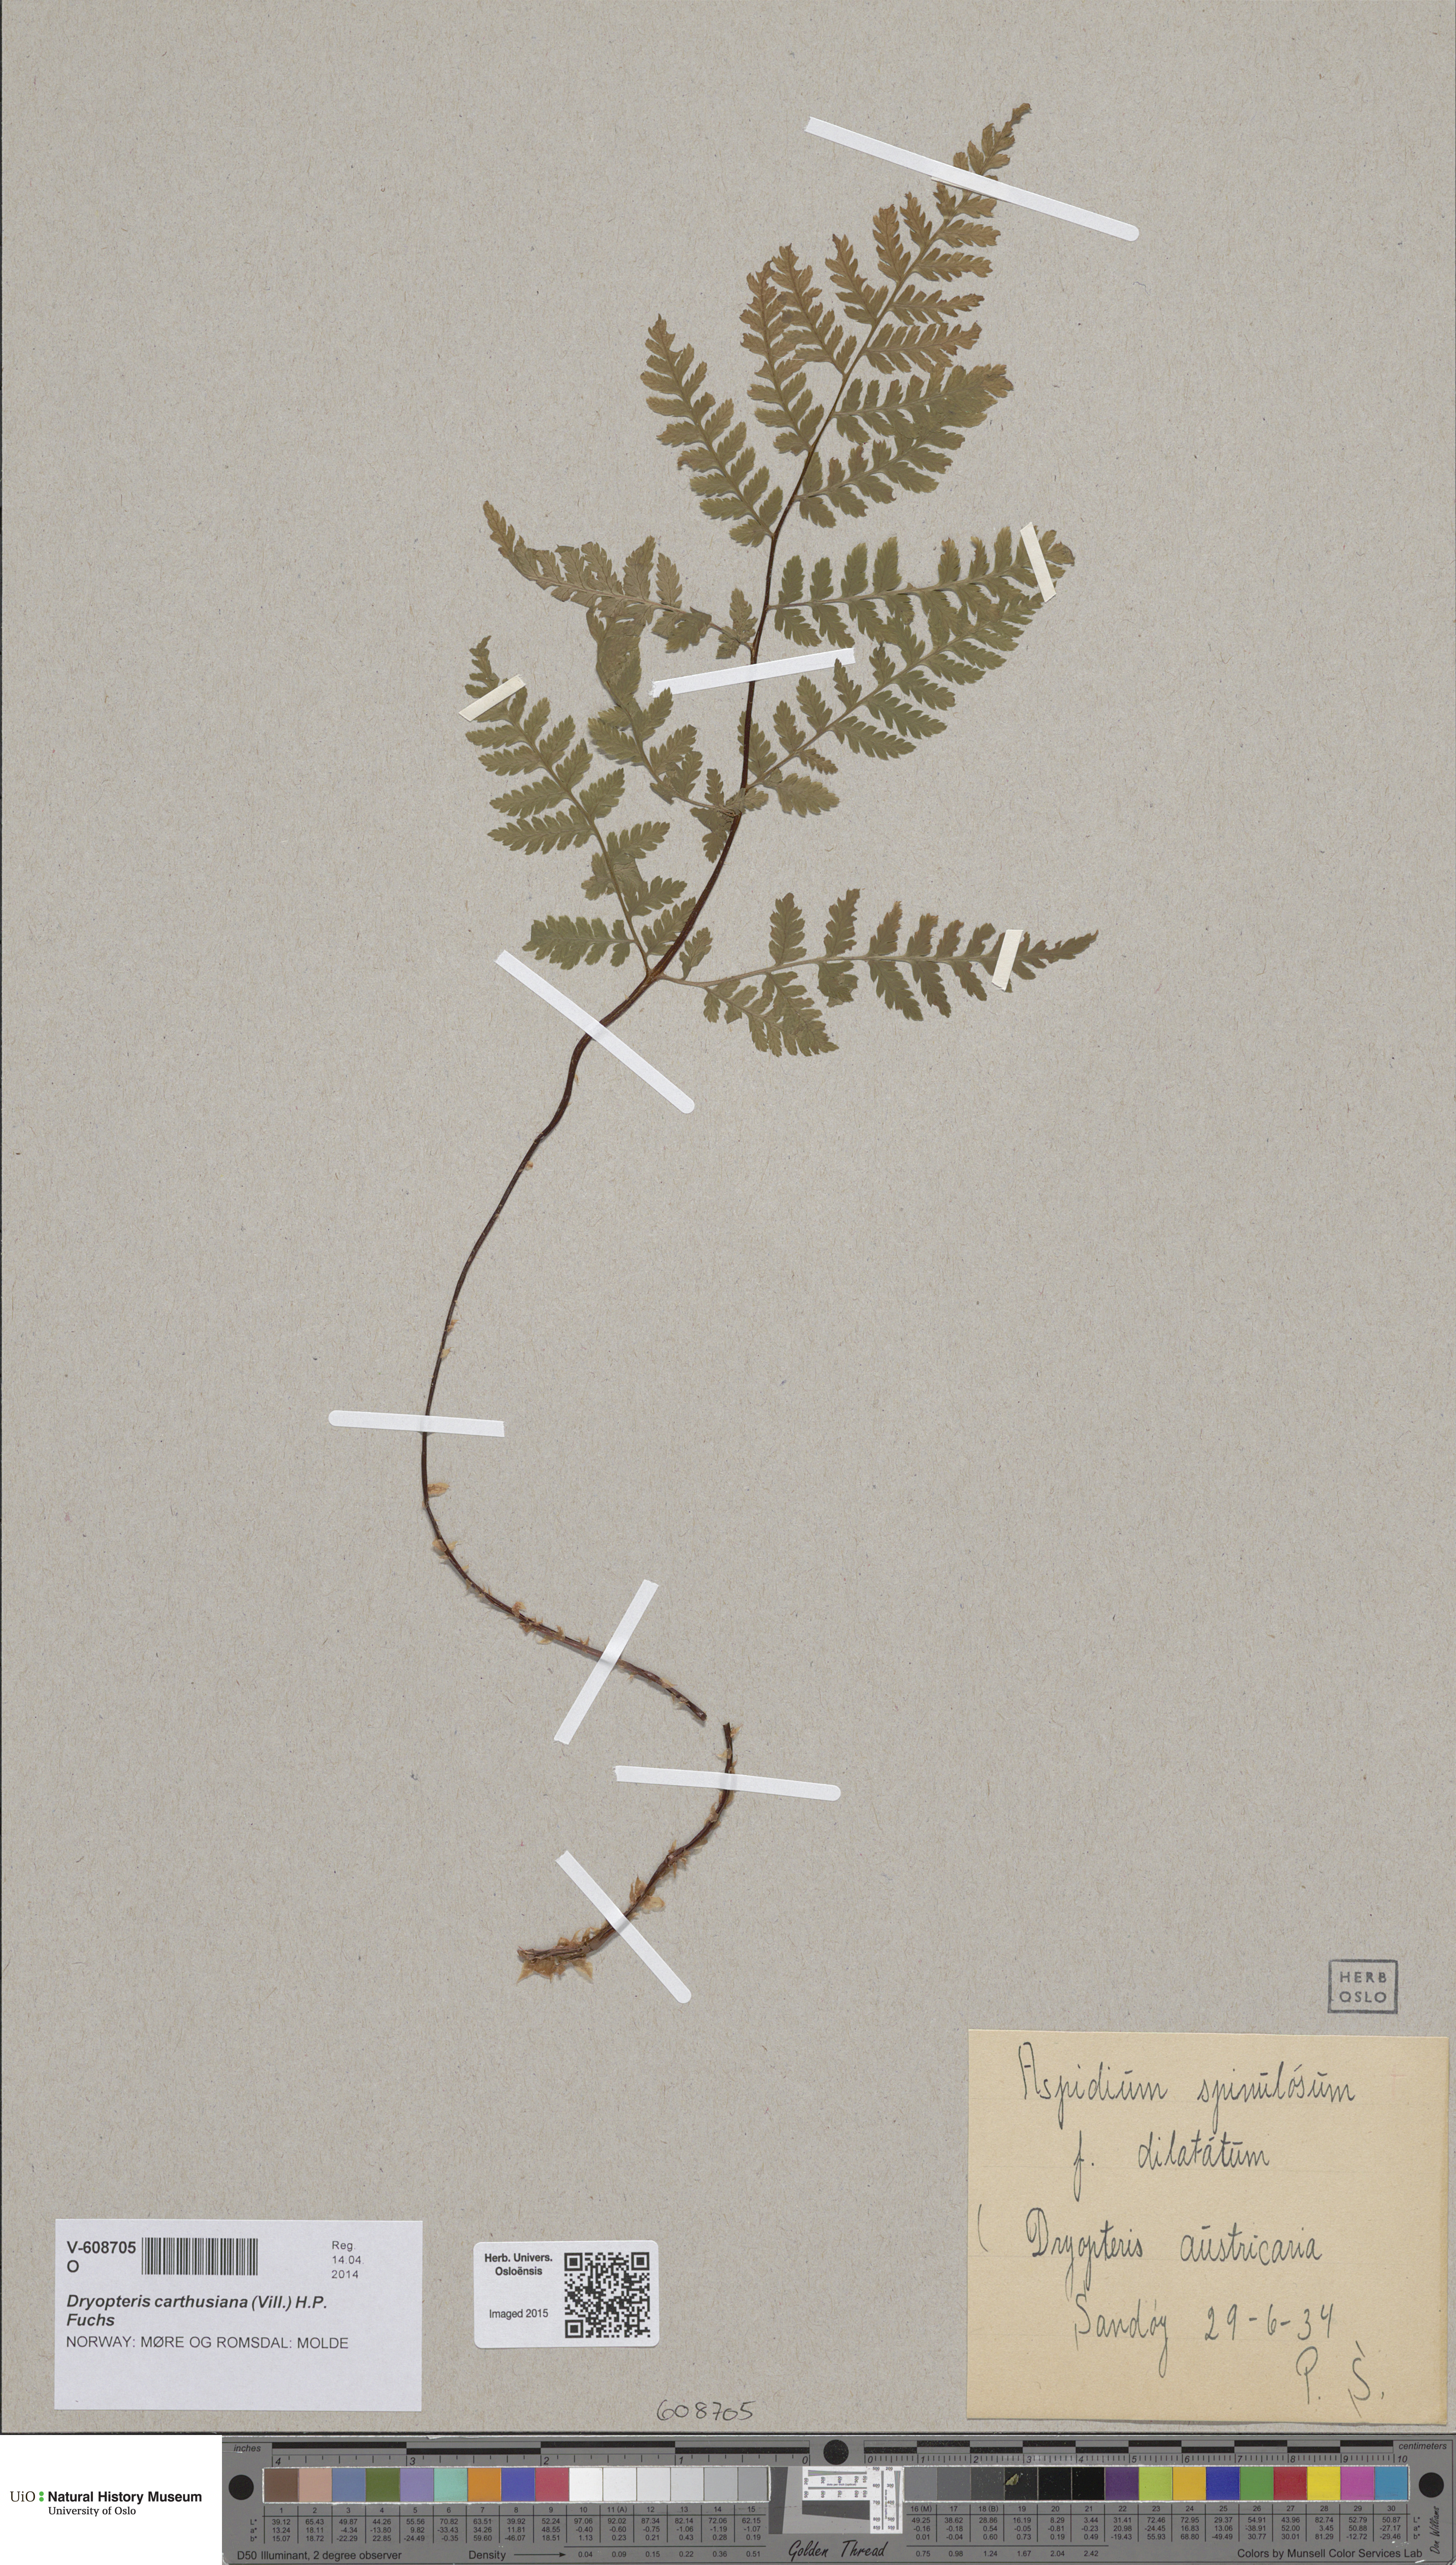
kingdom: Plantae
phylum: Tracheophyta
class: Polypodiopsida
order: Polypodiales
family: Dryopteridaceae
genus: Dryopteris
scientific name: Dryopteris carthusiana
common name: Narrow buckler-fern
